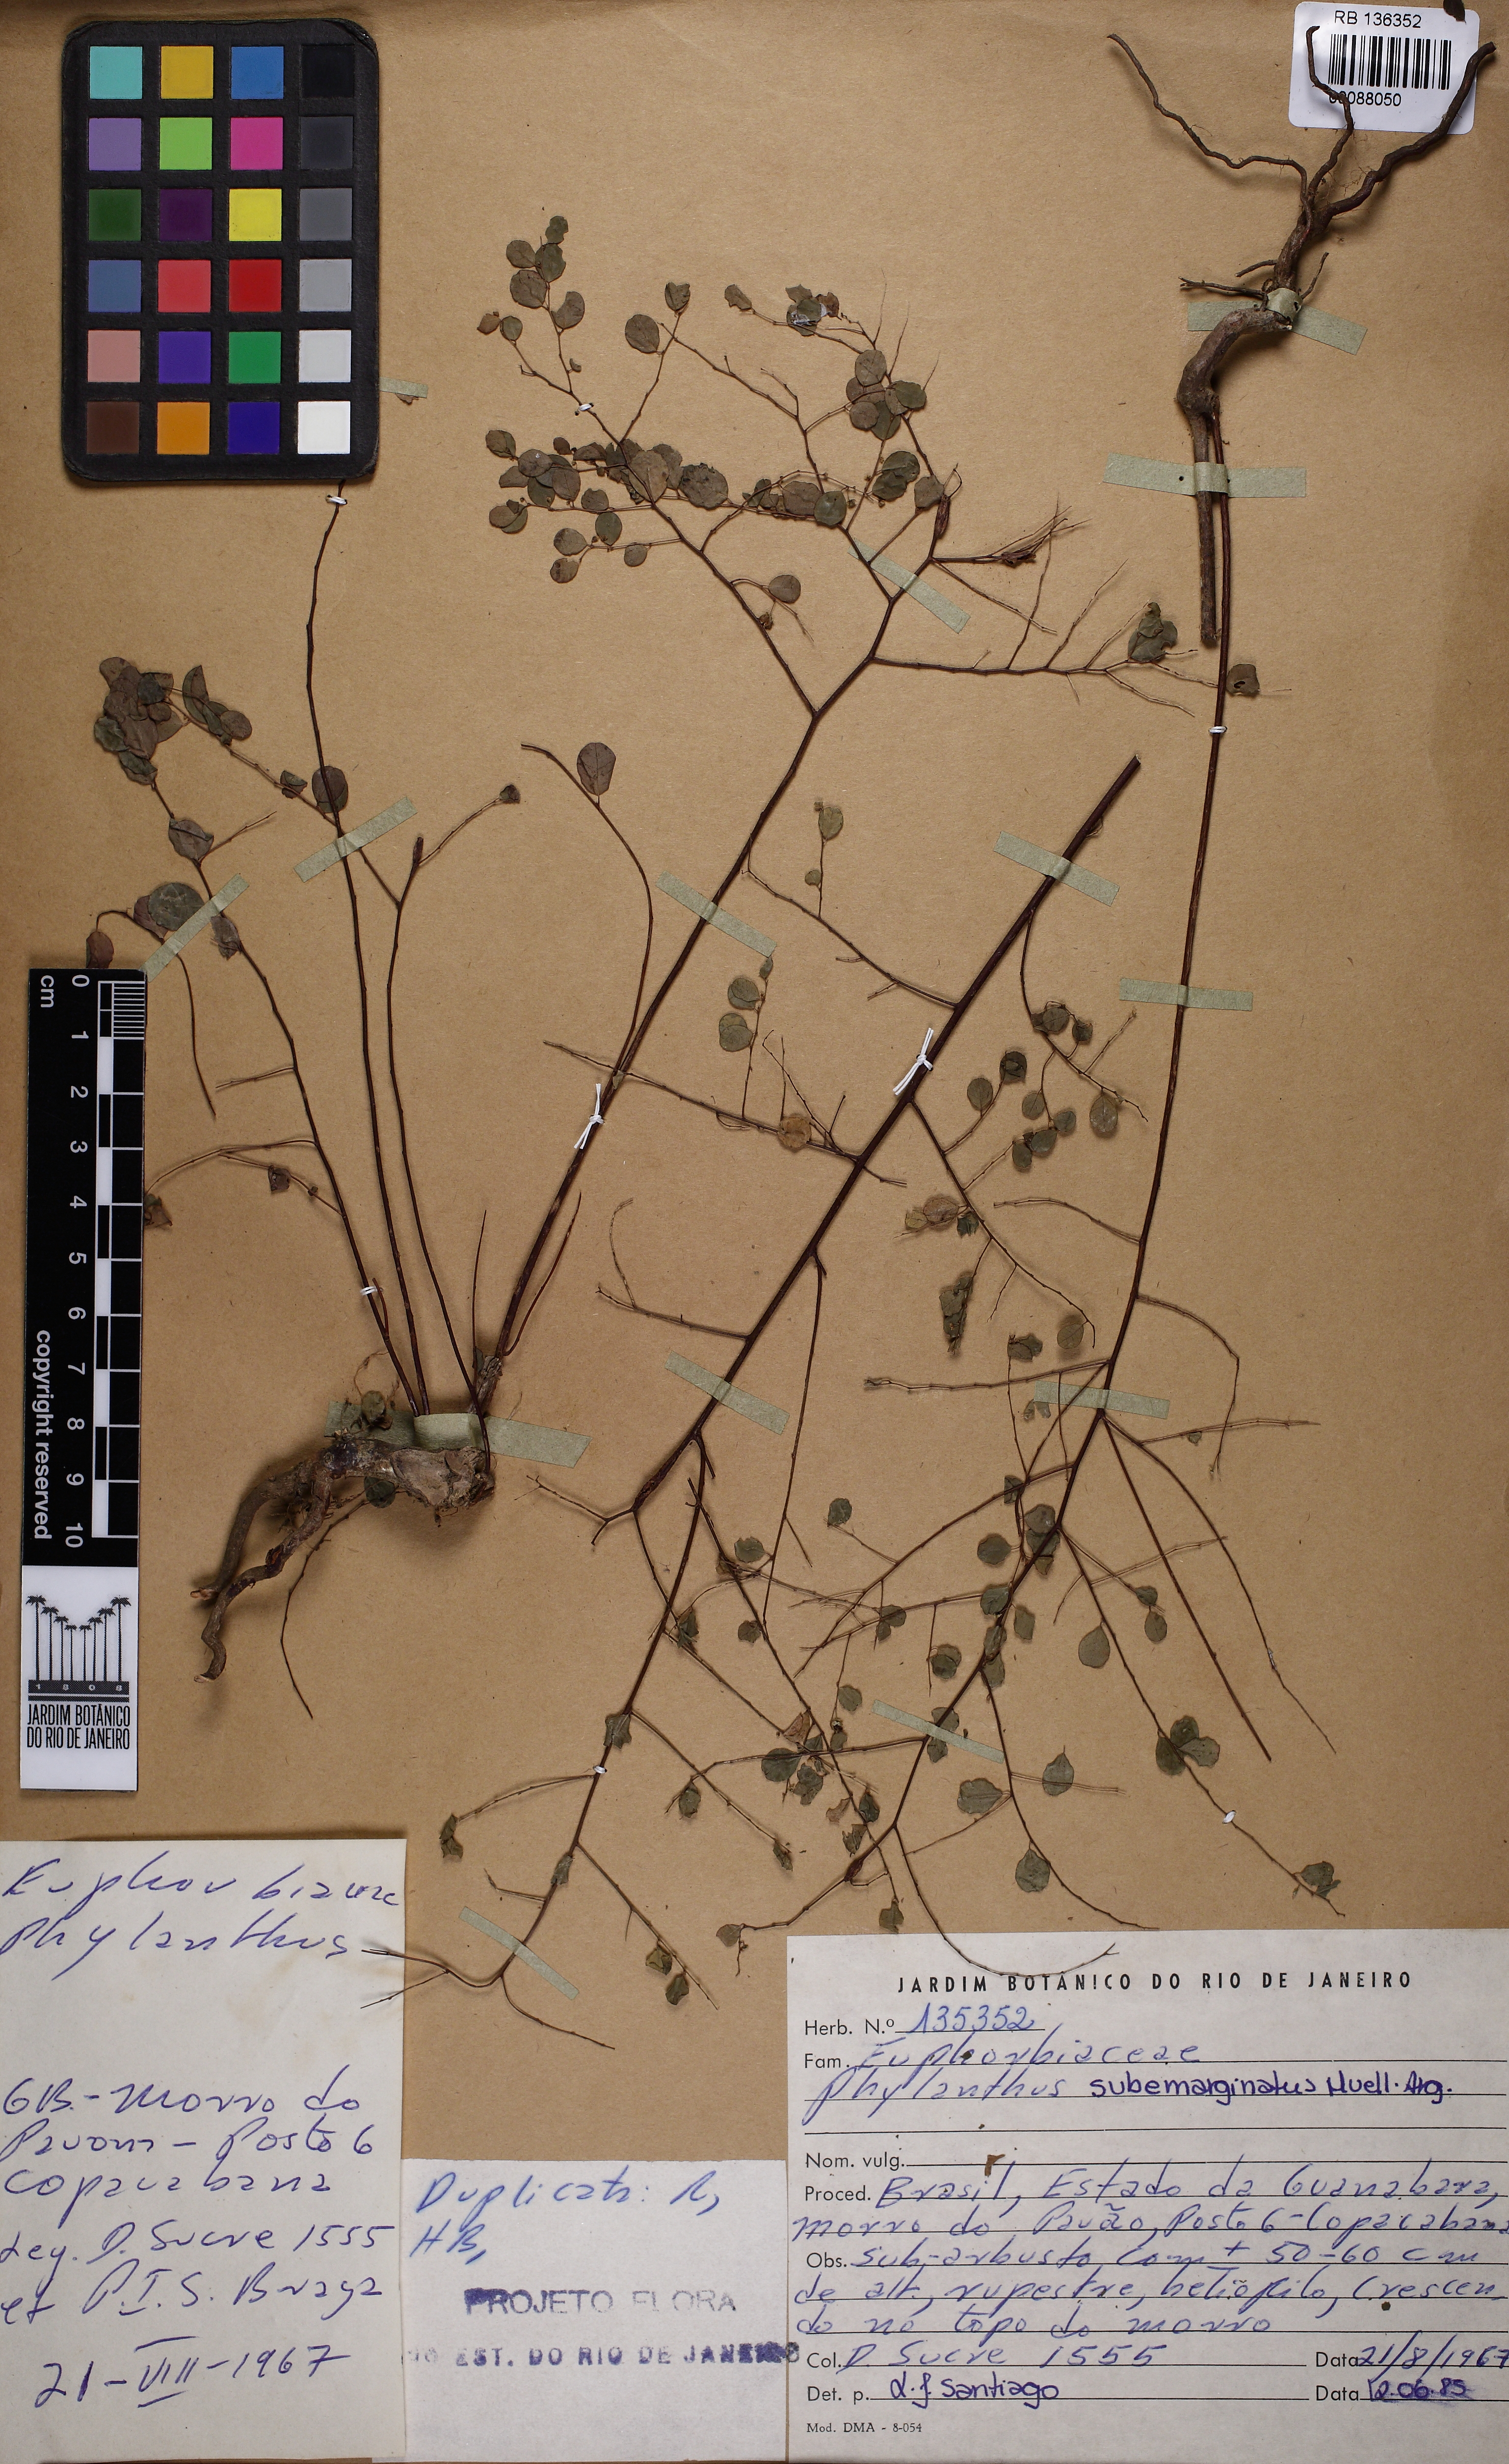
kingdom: Plantae
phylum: Tracheophyta
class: Magnoliopsida
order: Malpighiales
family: Phyllanthaceae
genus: Phyllanthus
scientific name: Phyllanthus subemarginatus
